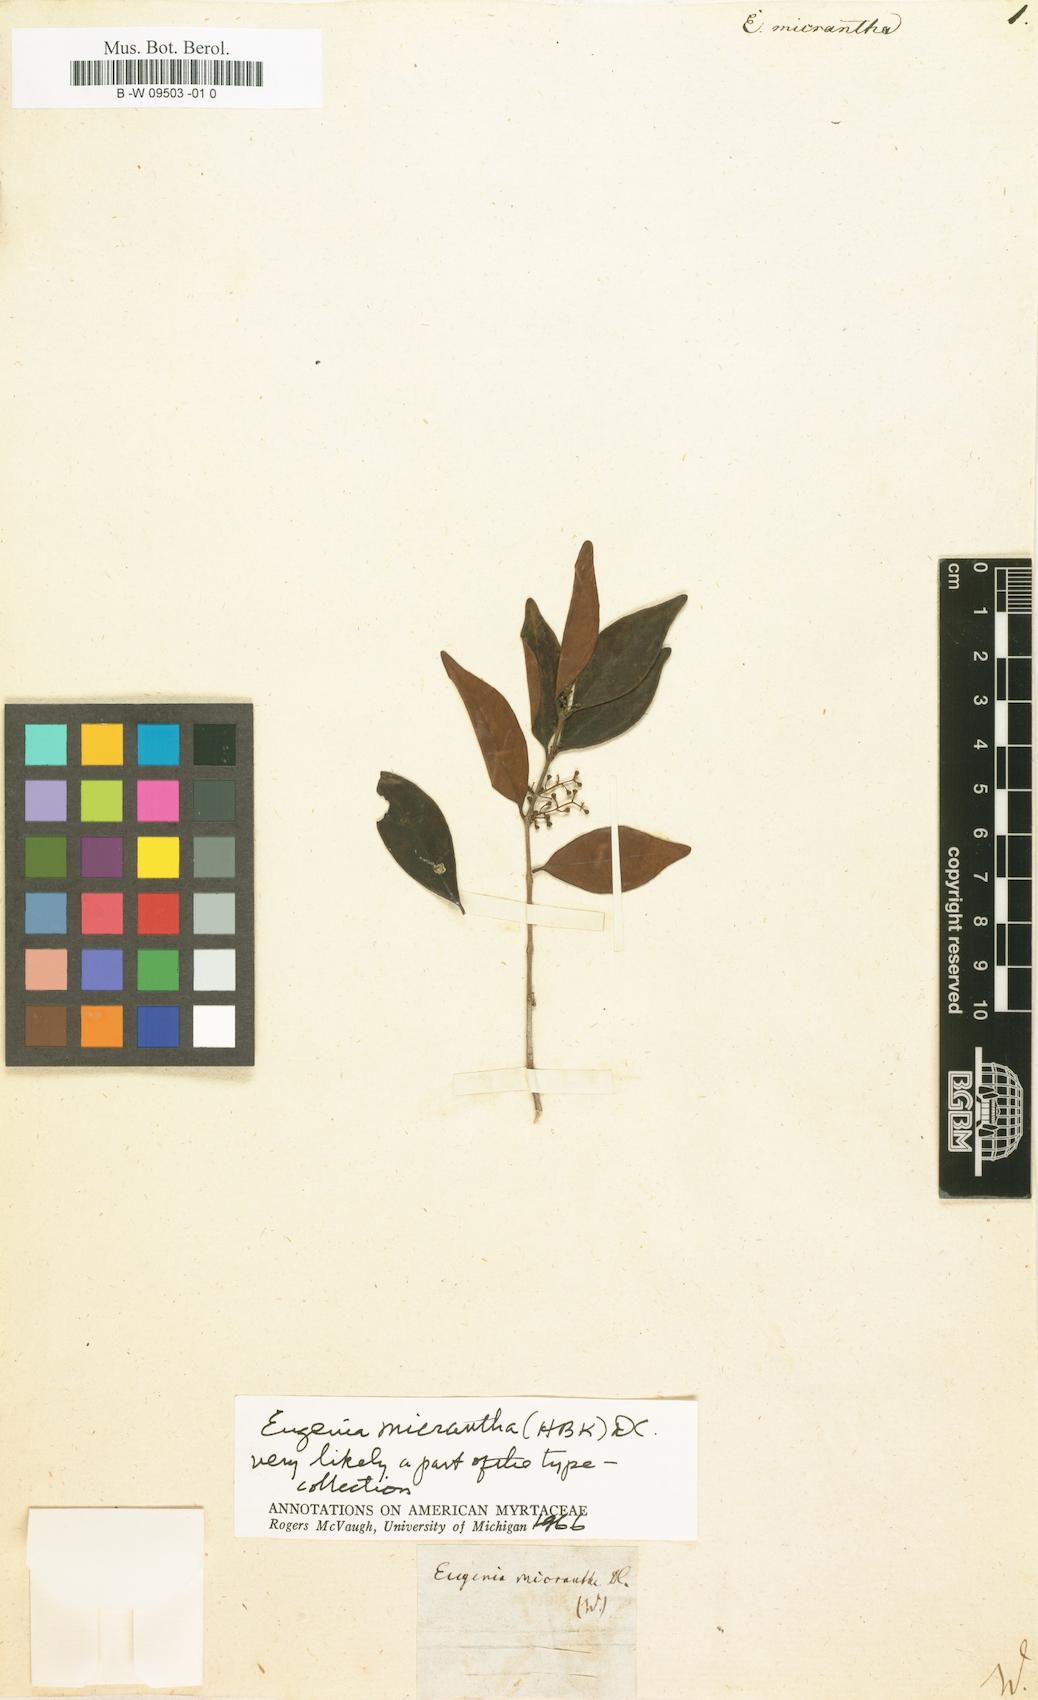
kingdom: Plantae
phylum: Tracheophyta
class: Magnoliopsida
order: Myrtales
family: Myrtaceae
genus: Eugenia
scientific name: Eugenia monticola
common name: Birds berry
